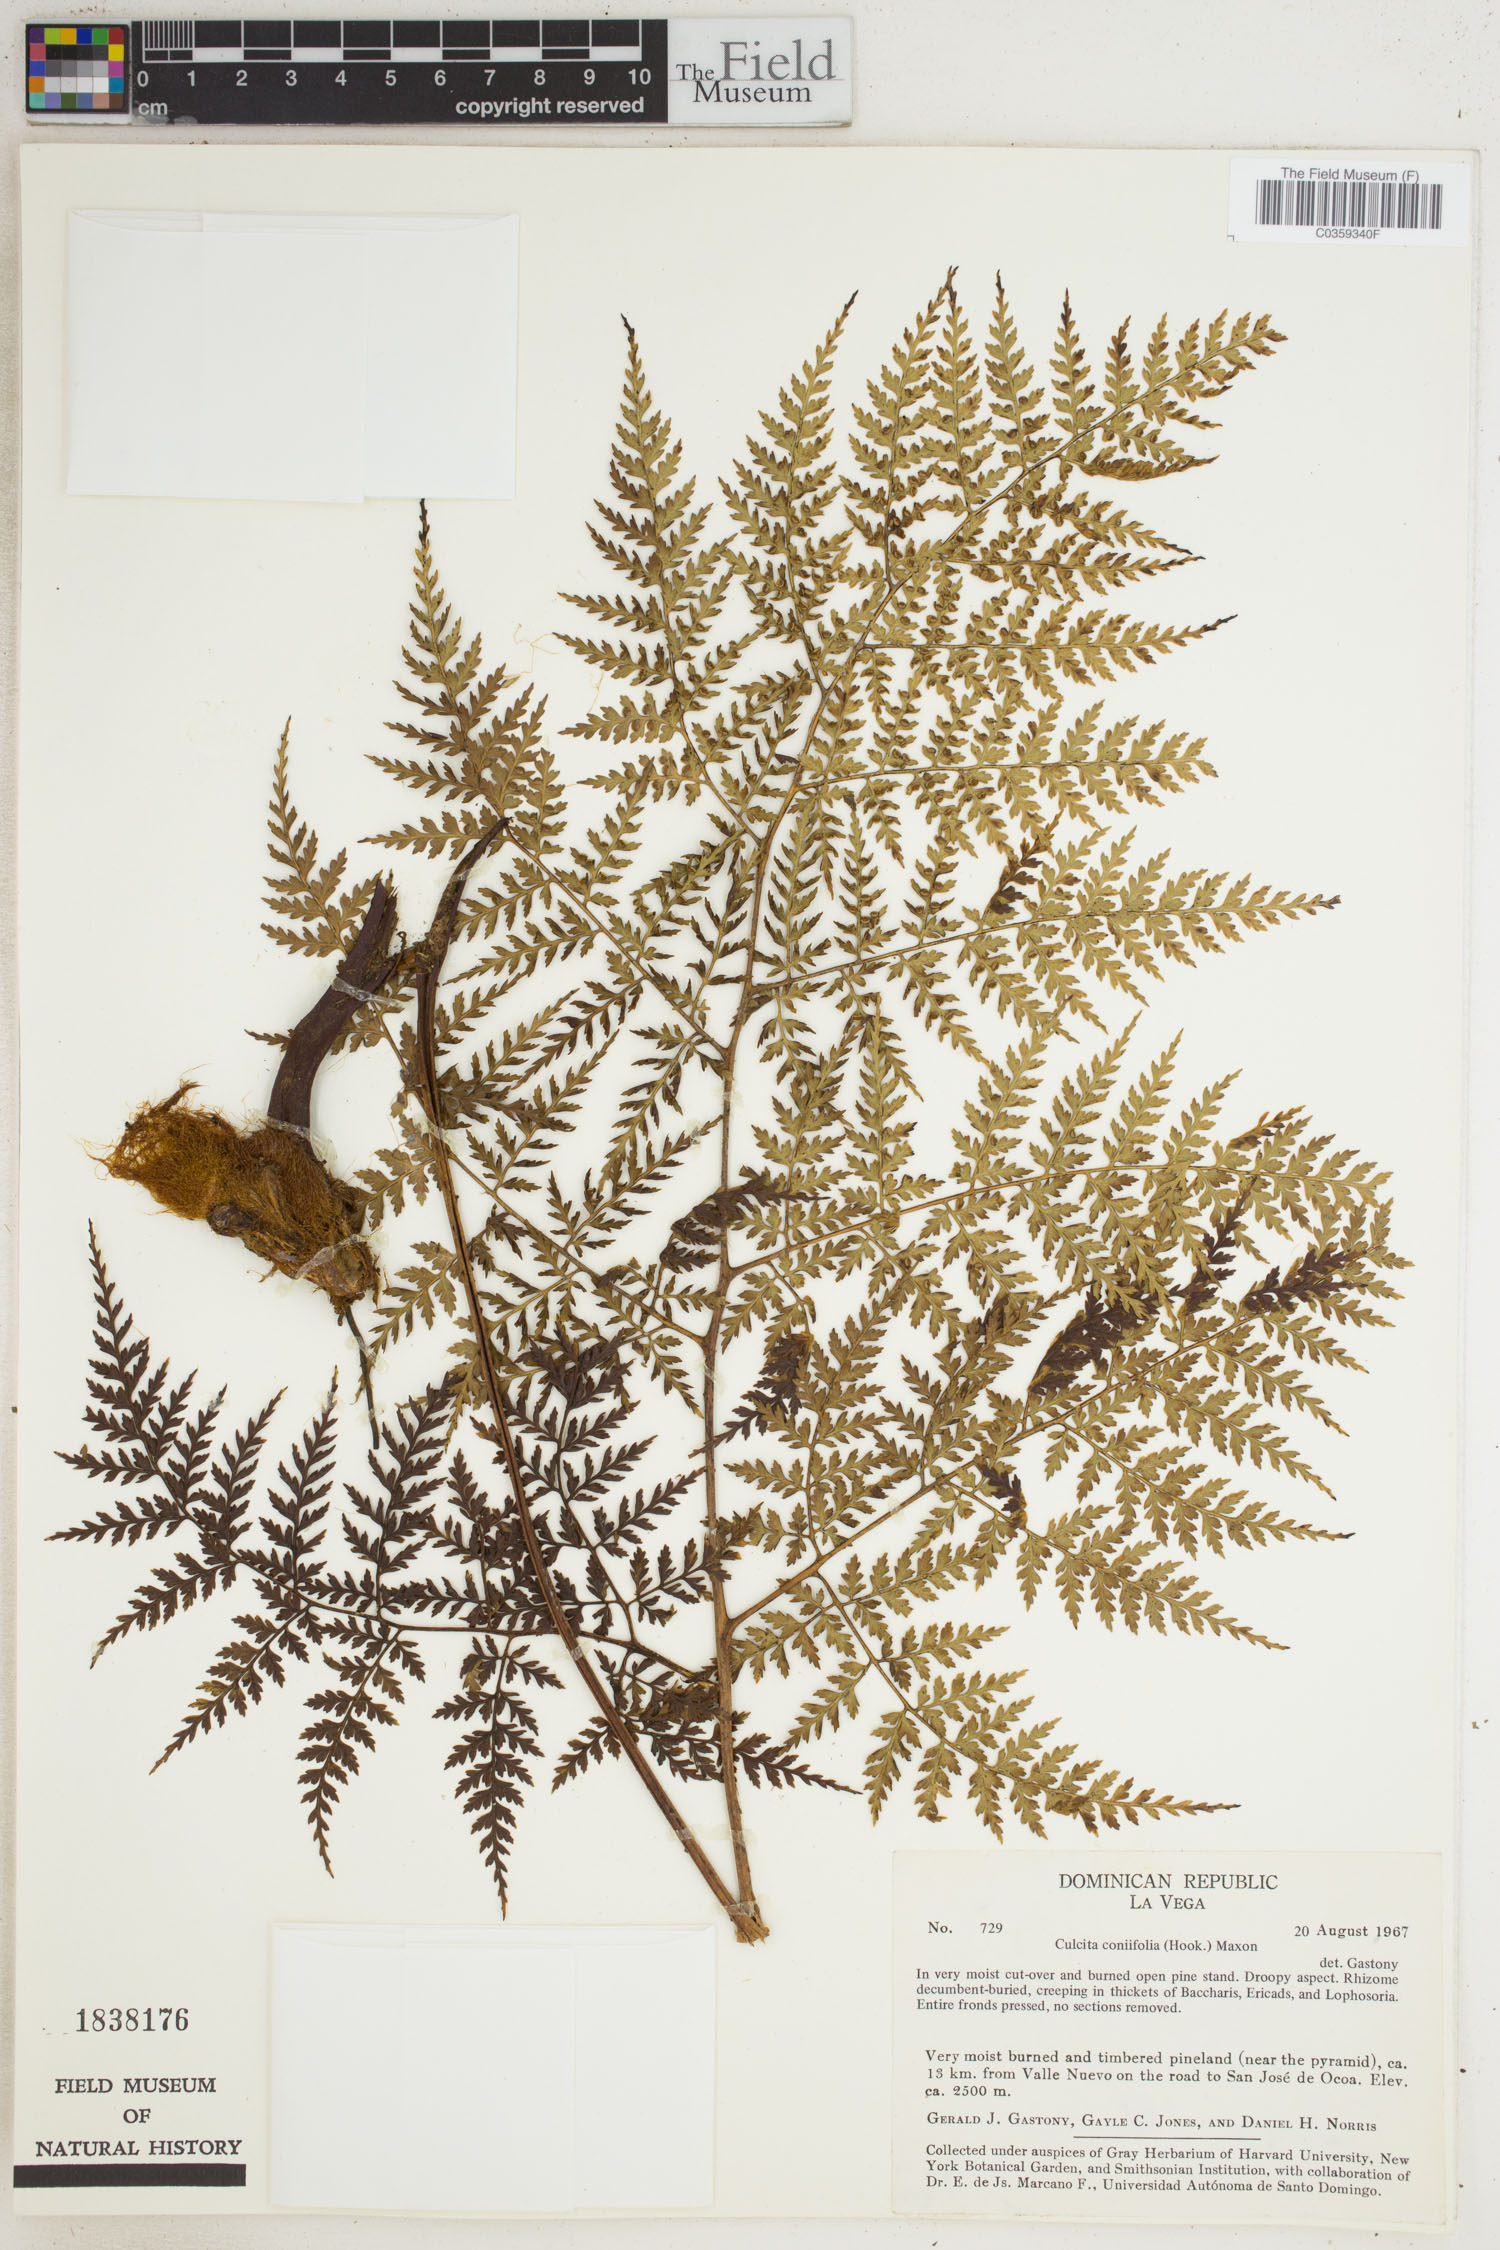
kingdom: Plantae
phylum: Tracheophyta
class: Polypodiopsida
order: Cyatheales
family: Culcitaceae
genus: Culcita
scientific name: Culcita coniifolia
